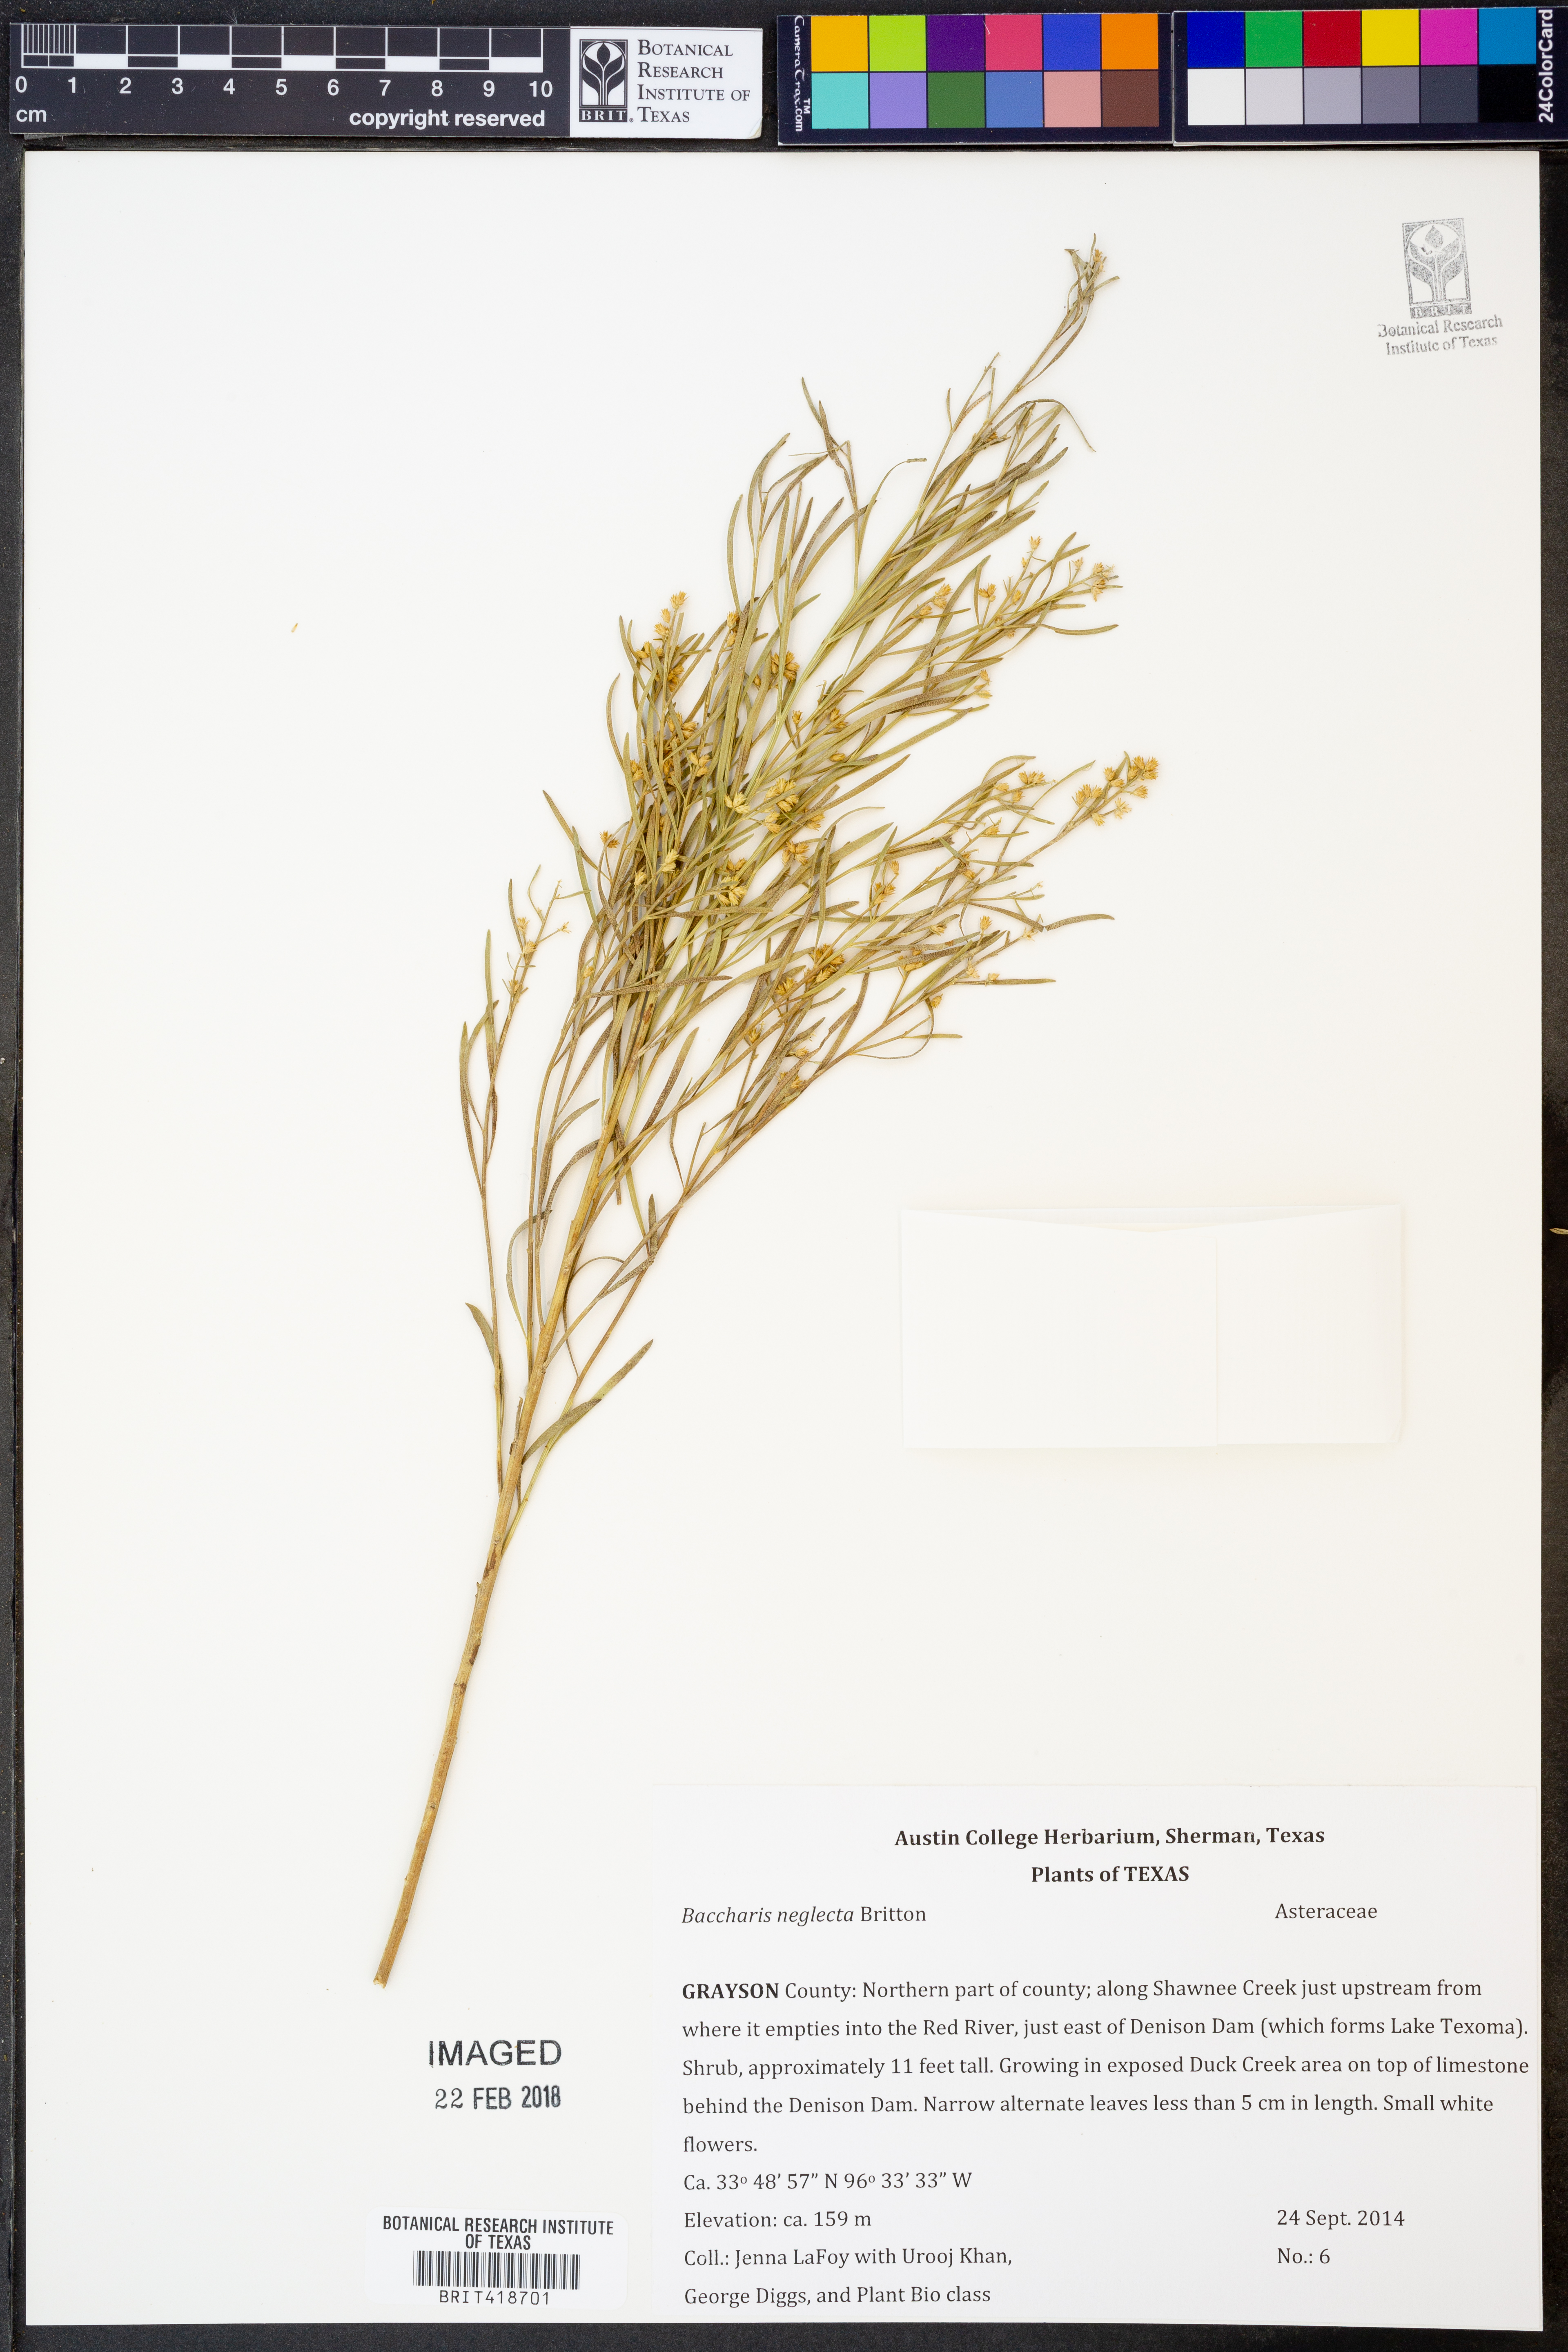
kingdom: Plantae
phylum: Tracheophyta
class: Magnoliopsida
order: Asterales
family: Asteraceae
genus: Baccharis
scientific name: Baccharis neglecta
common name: Roosevelt-weed
